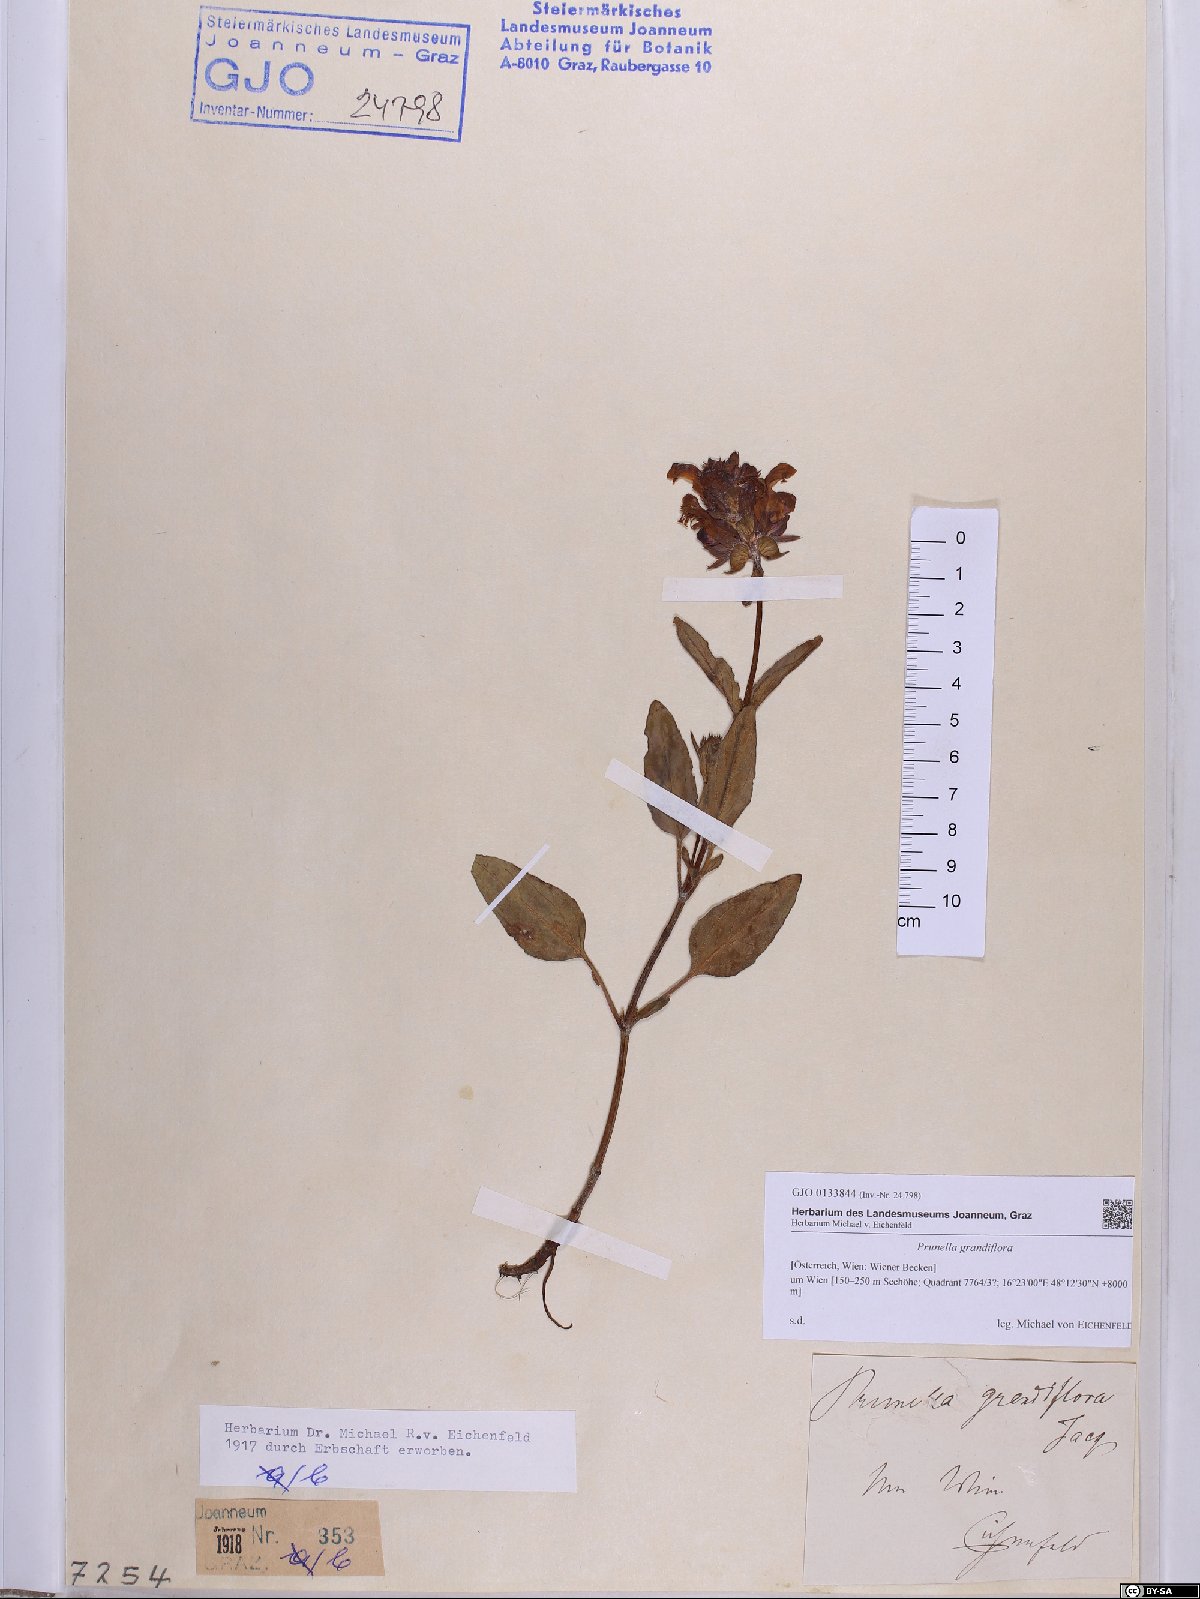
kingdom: Plantae
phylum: Tracheophyta
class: Magnoliopsida
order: Lamiales
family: Lamiaceae
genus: Prunella
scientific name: Prunella grandiflora
